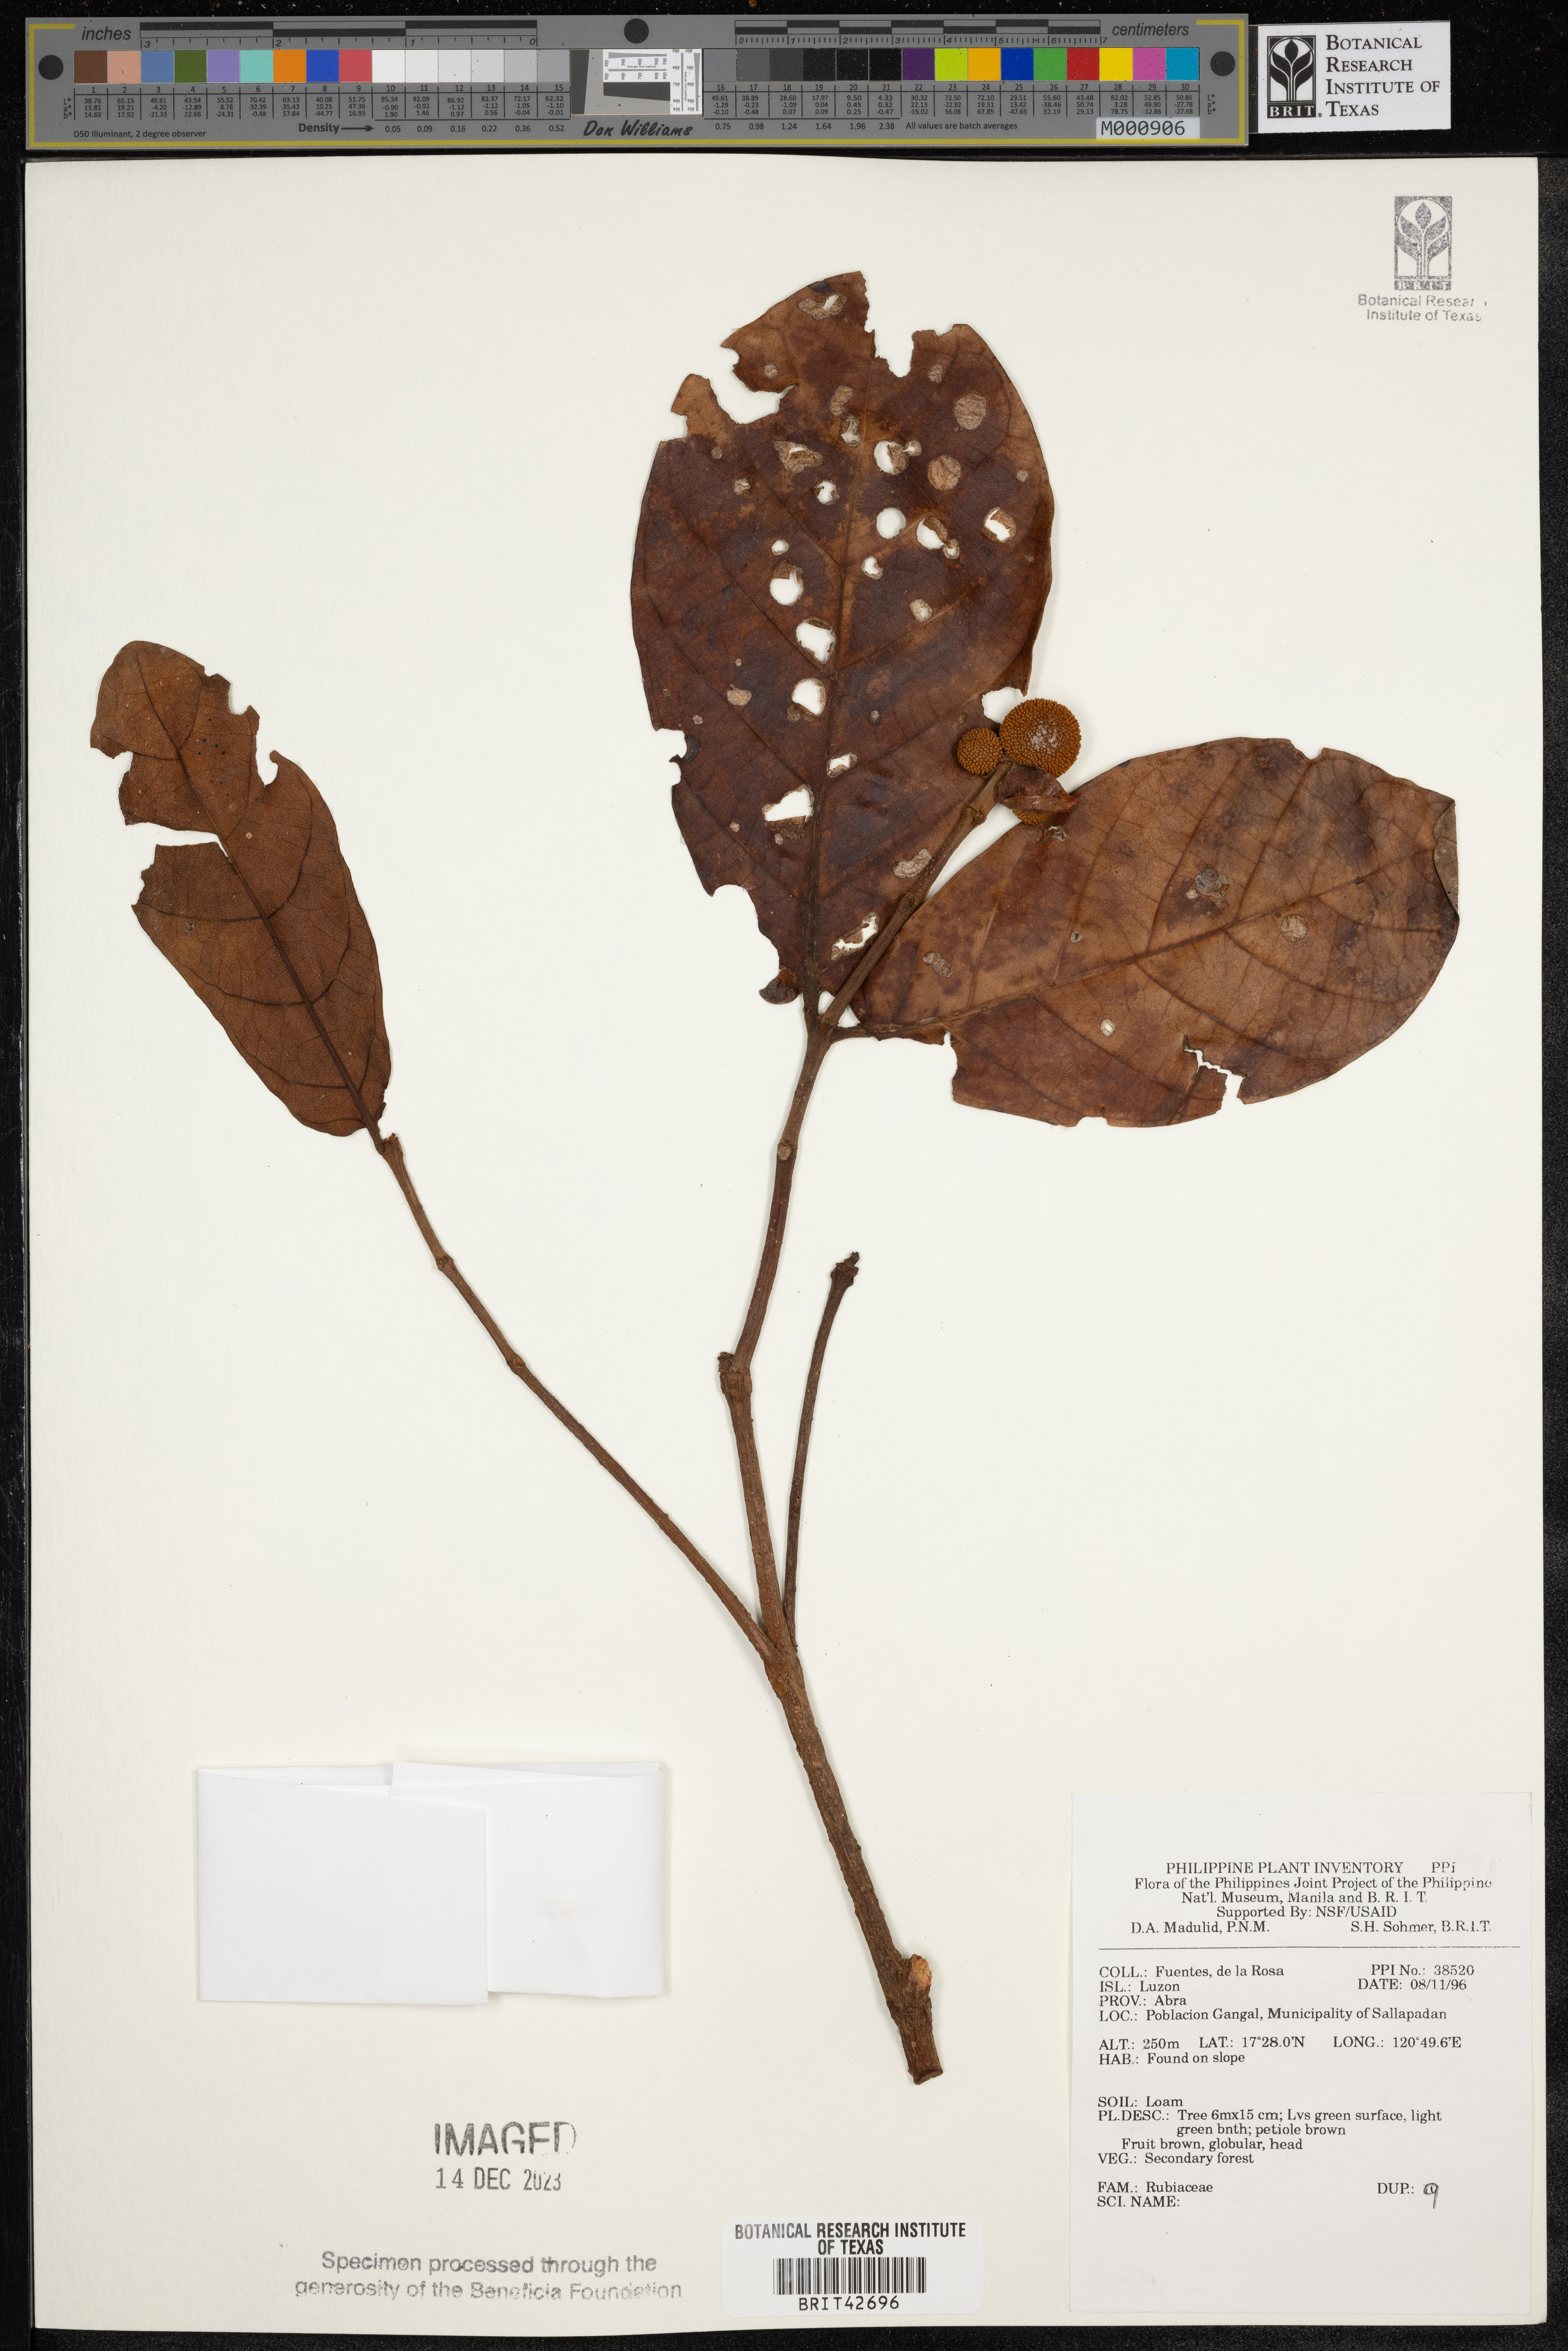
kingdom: Plantae
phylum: Tracheophyta
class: Magnoliopsida
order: Gentianales
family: Rubiaceae
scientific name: Rubiaceae
